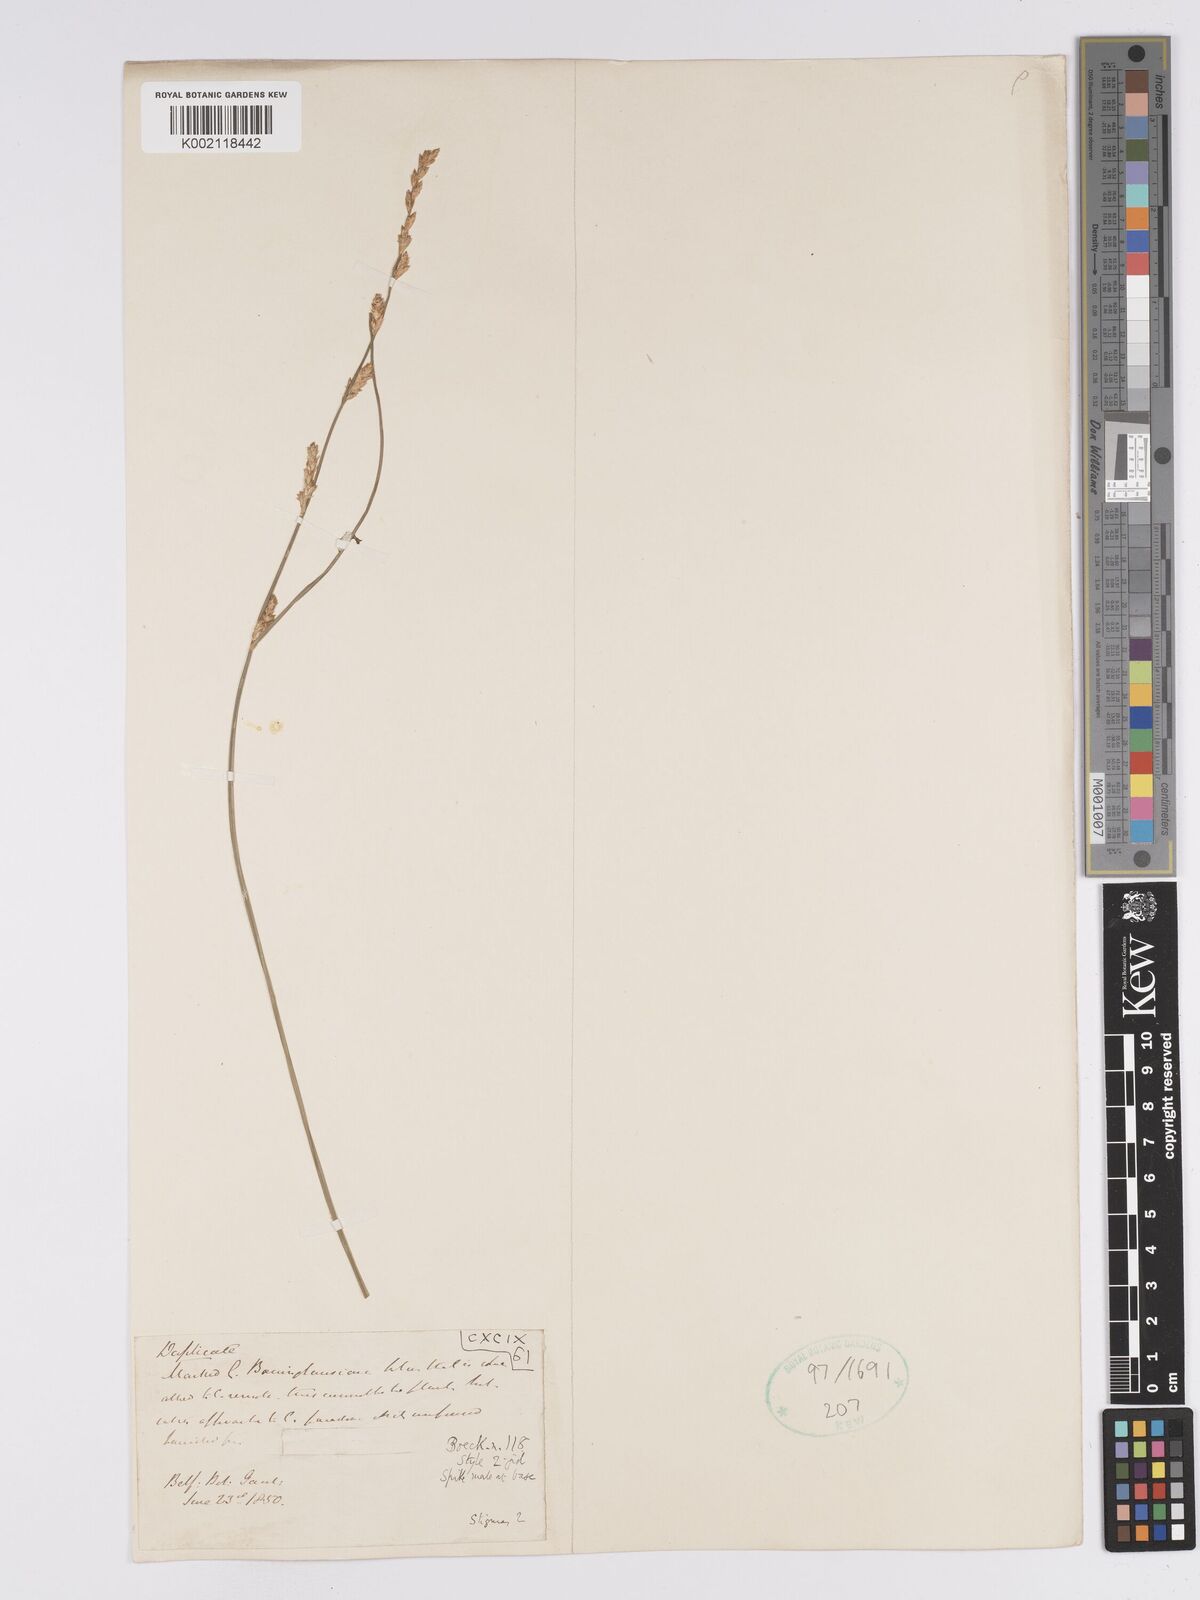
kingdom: Plantae
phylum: Tracheophyta
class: Liliopsida
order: Poales
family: Cyperaceae
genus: Carex
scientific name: Carex boenninghausiana
